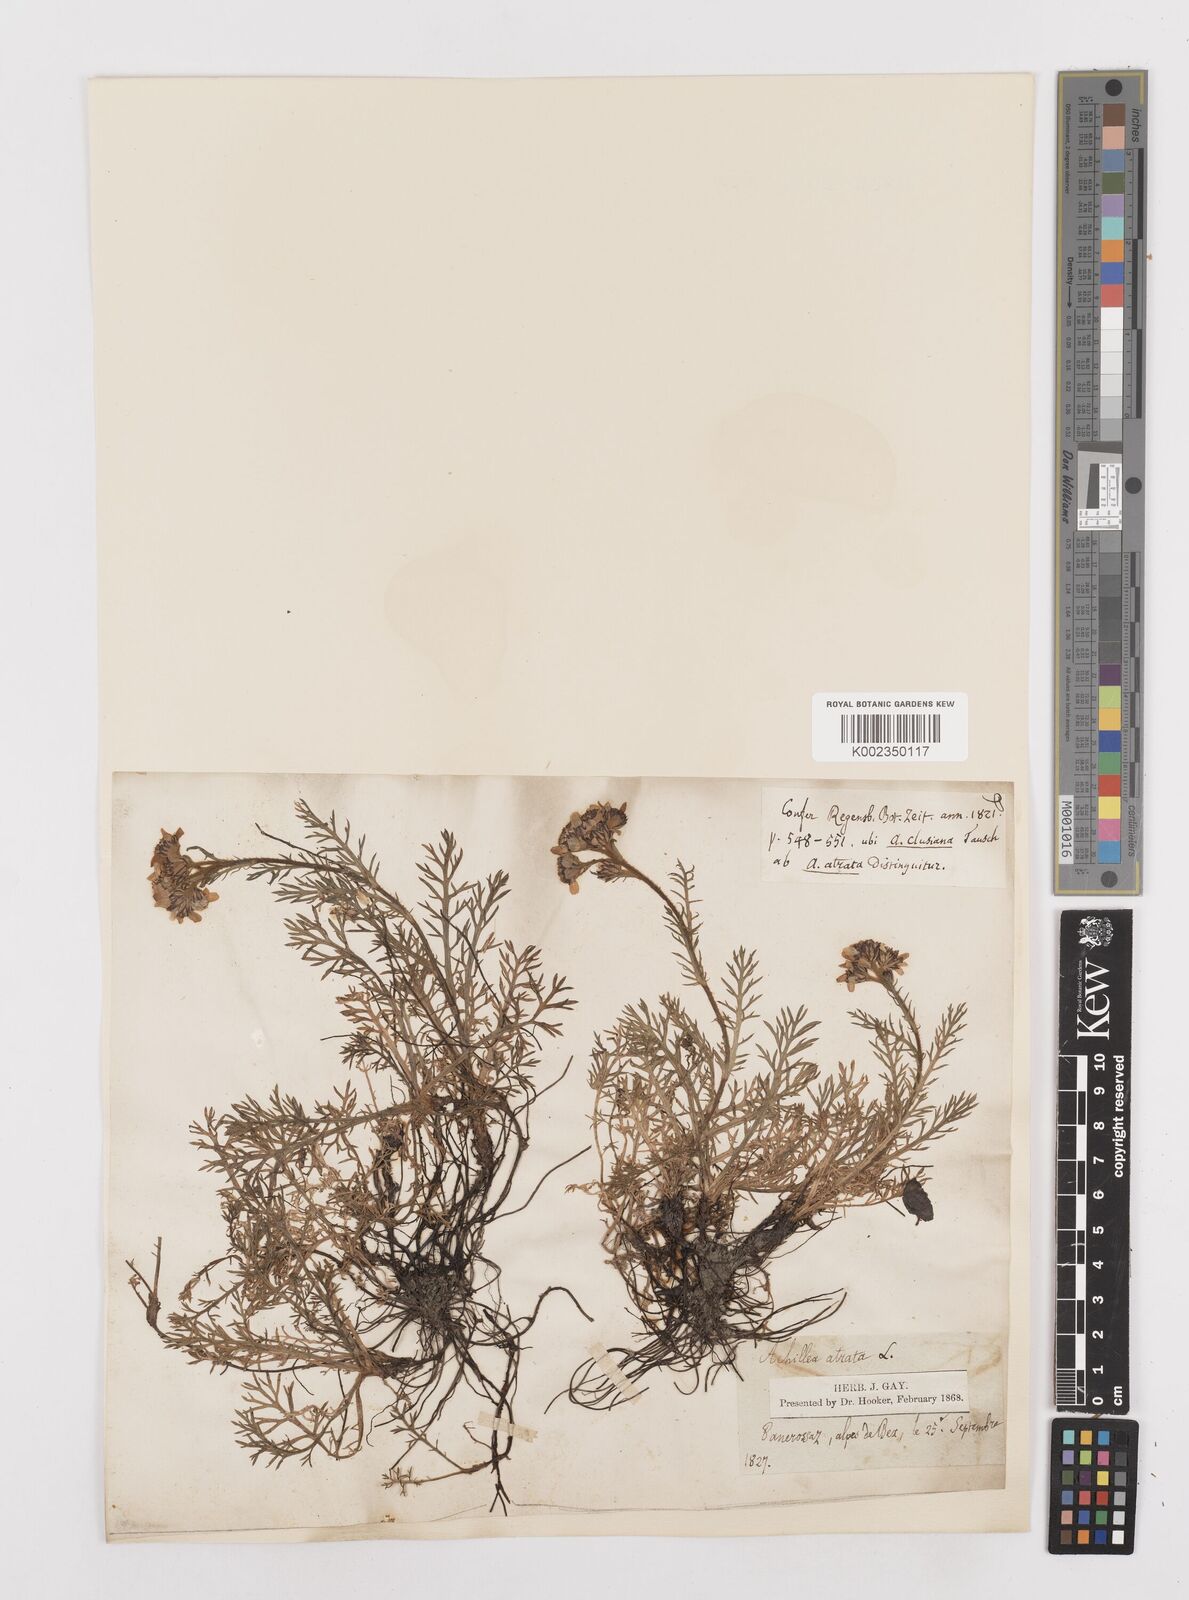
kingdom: Plantae
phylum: Tracheophyta
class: Magnoliopsida
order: Asterales
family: Asteraceae
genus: Achillea
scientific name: Achillea atrata
